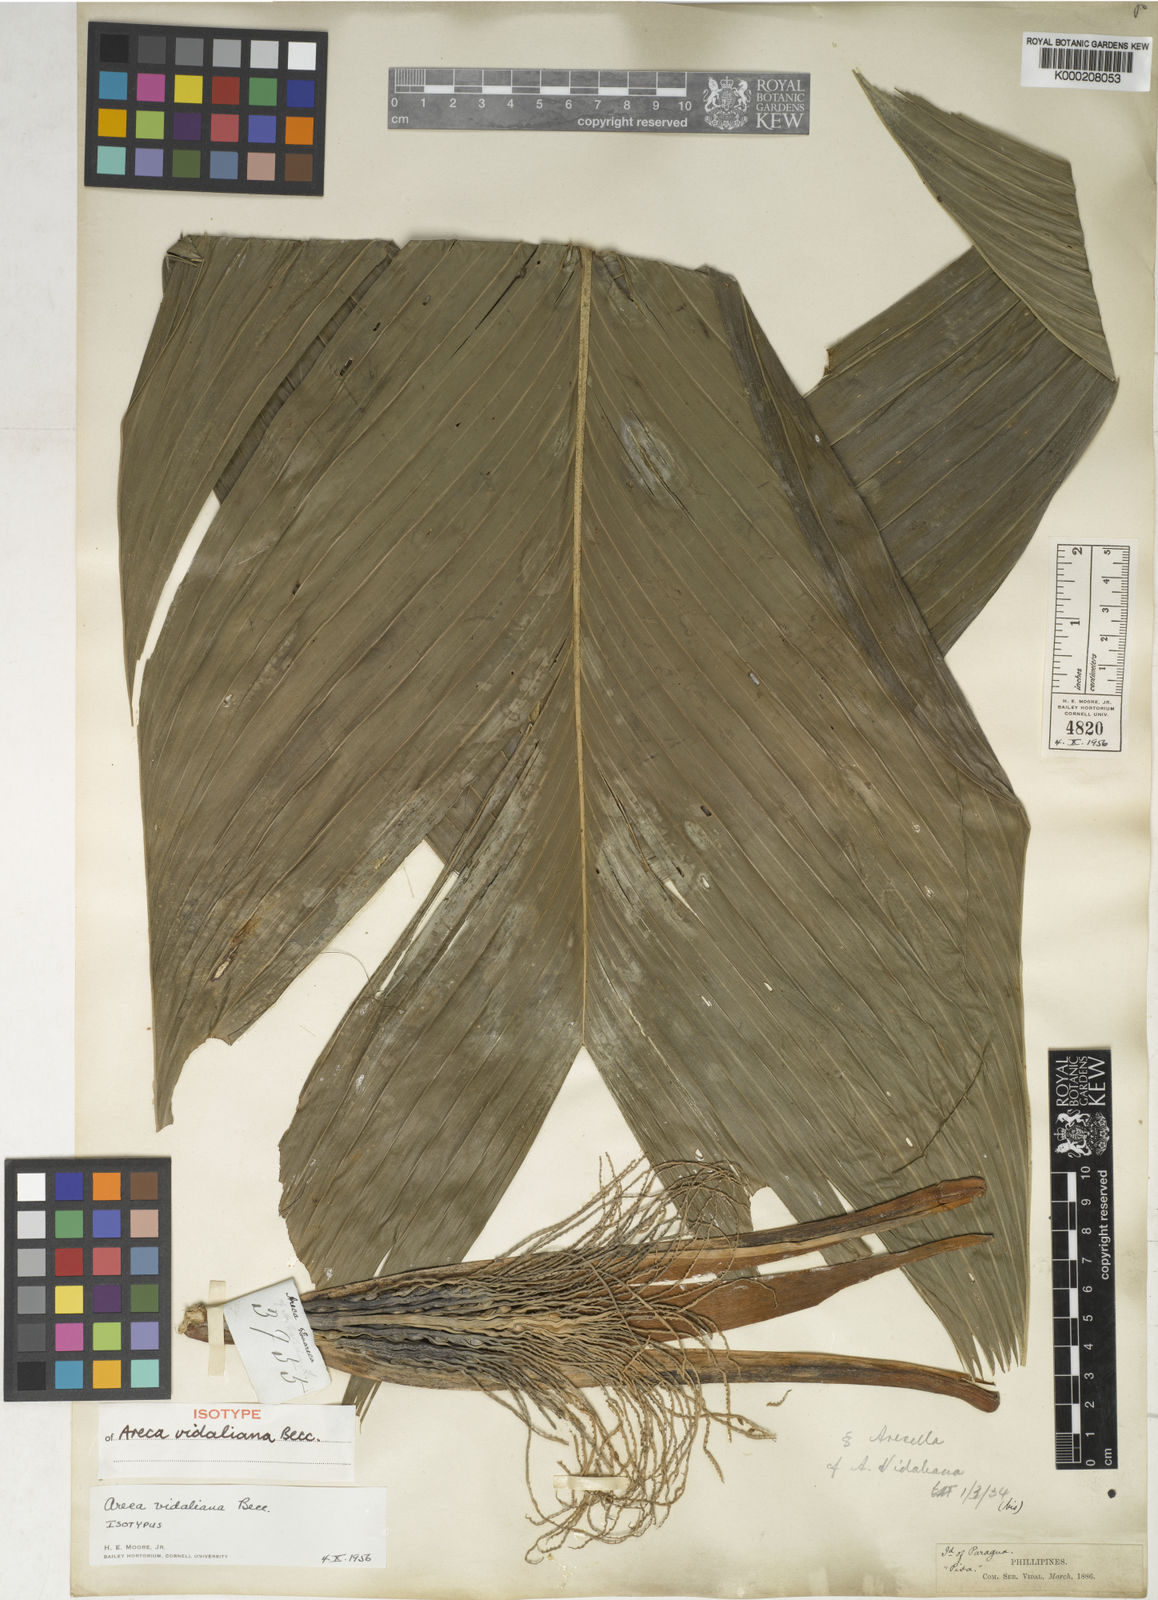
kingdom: Plantae
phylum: Tracheophyta
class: Liliopsida
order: Arecales
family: Arecaceae
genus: Areca
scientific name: Areca vidaliana
